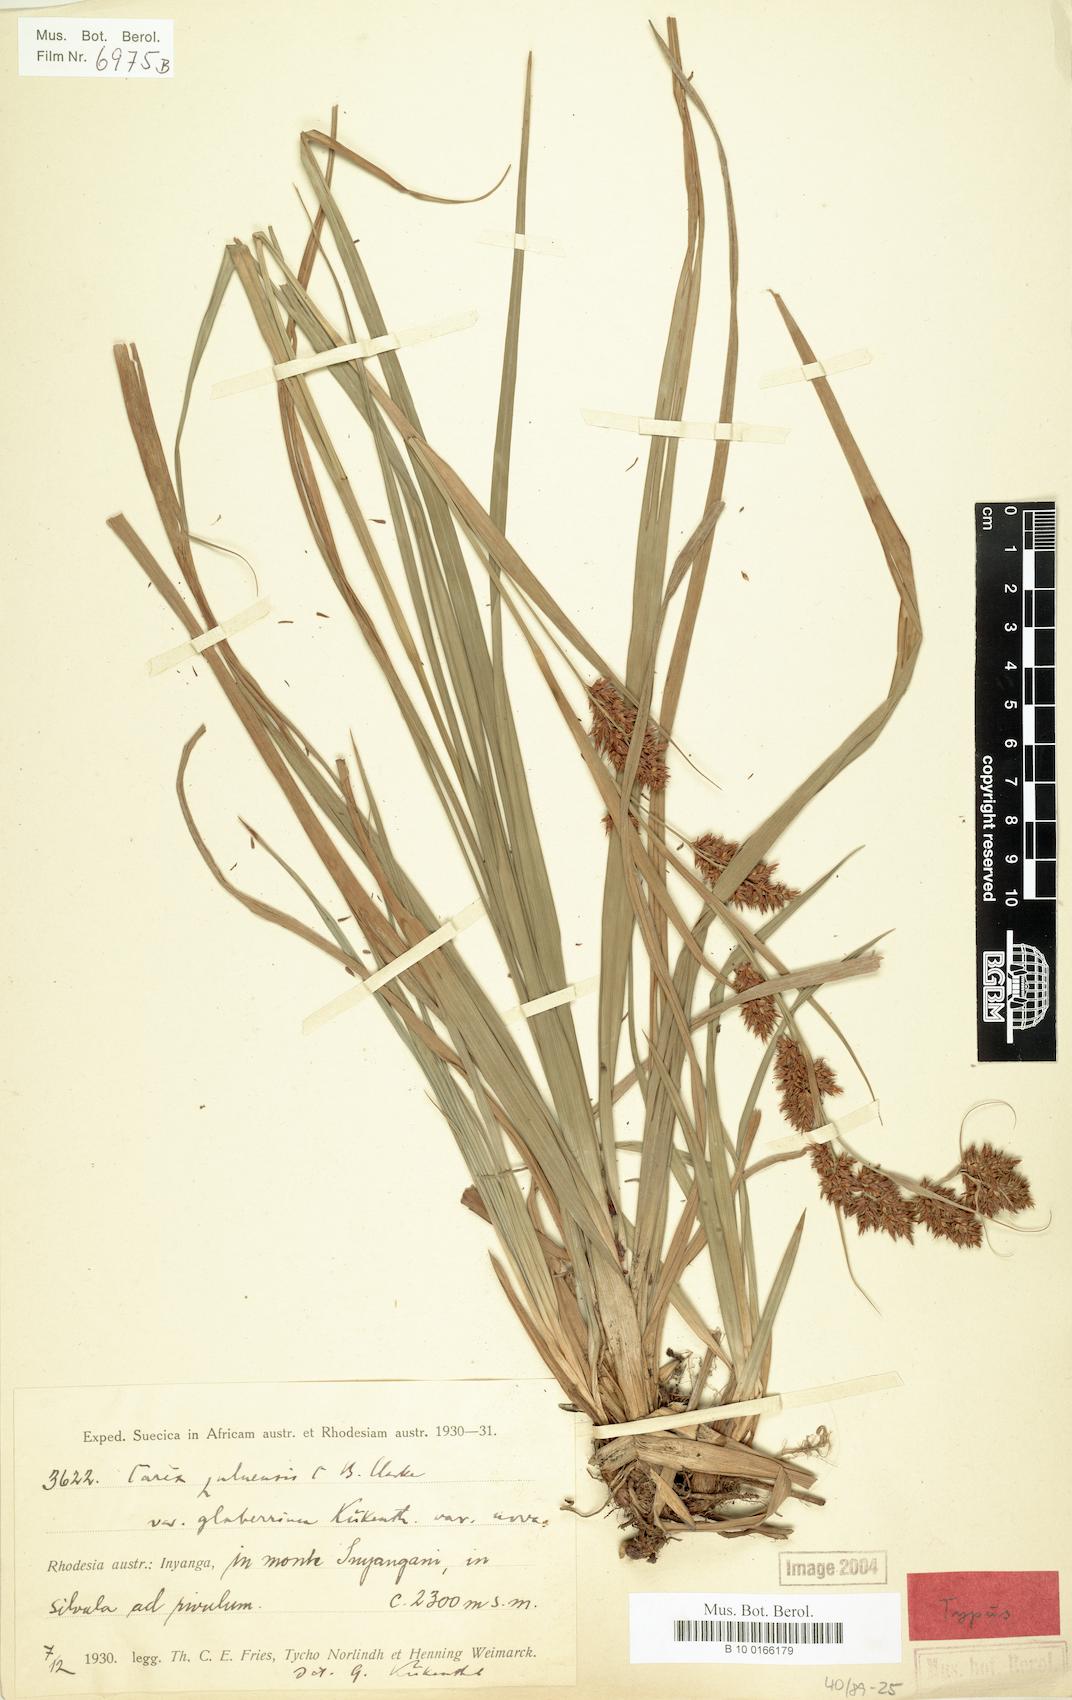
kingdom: Plantae
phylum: Tracheophyta
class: Liliopsida
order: Poales
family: Cyperaceae
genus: Carex
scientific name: Carex steudneri
